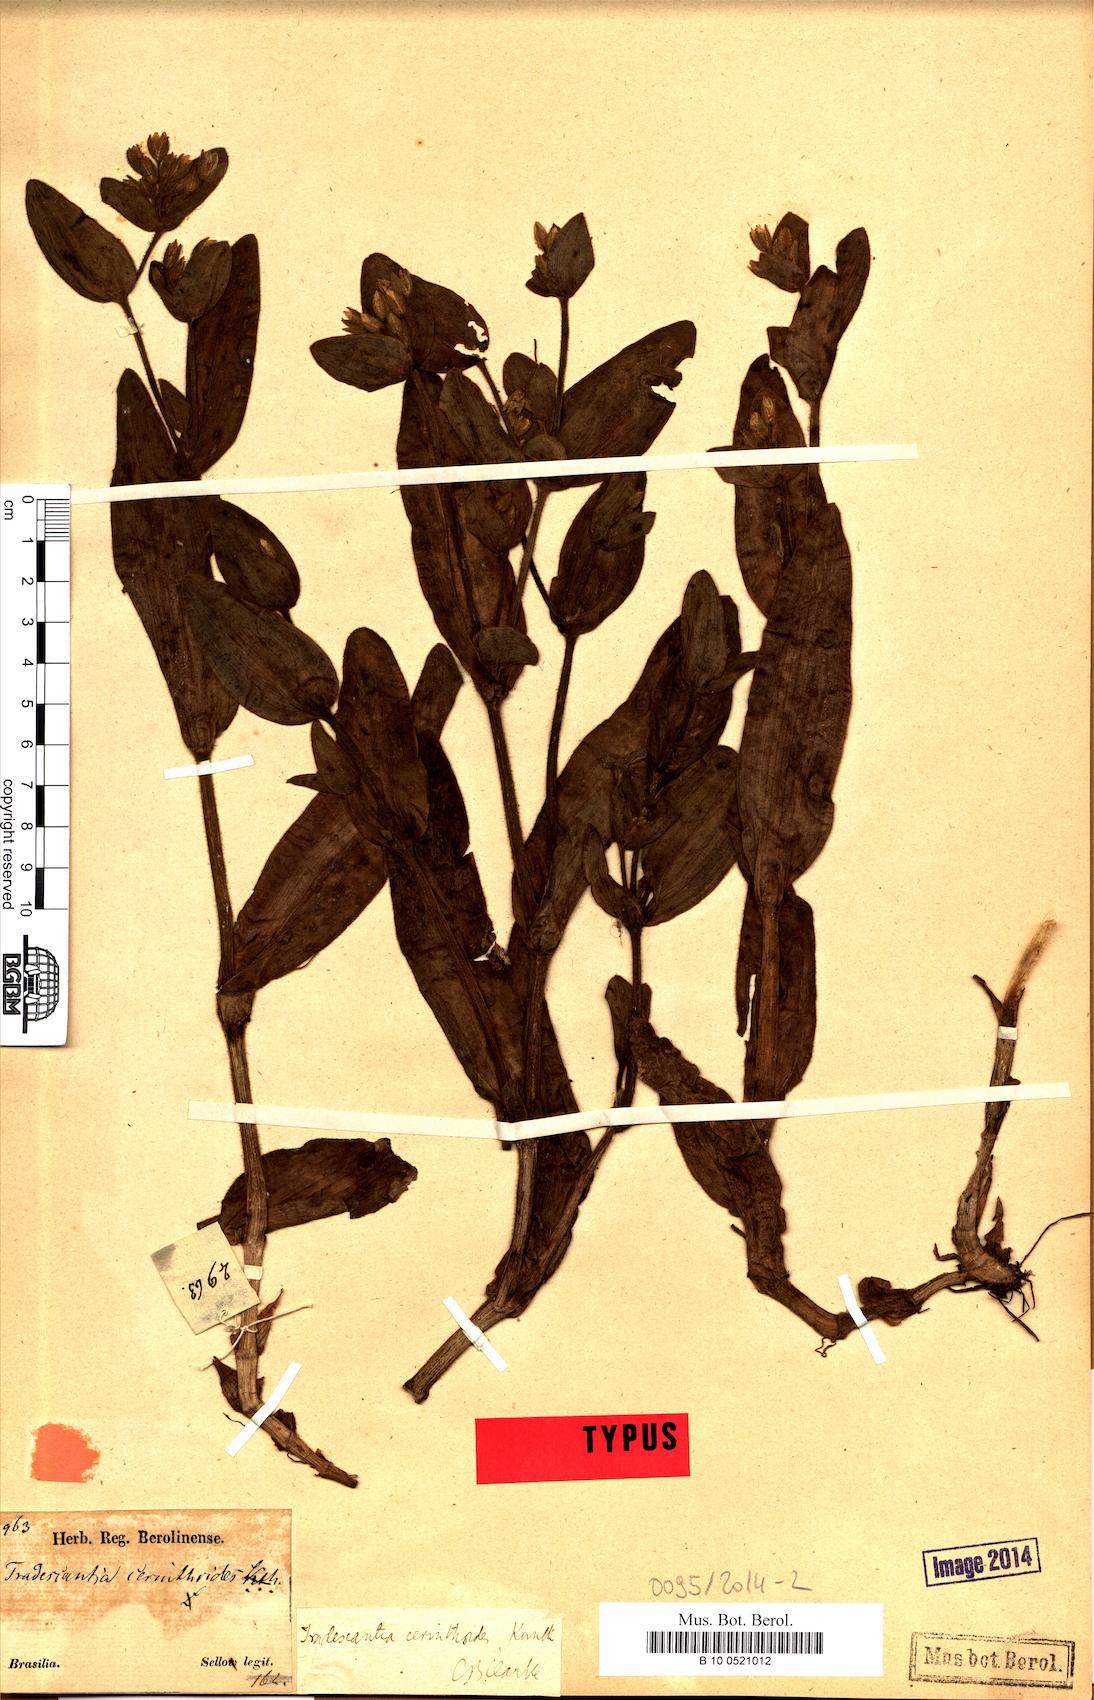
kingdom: Plantae
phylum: Tracheophyta
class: Liliopsida
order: Commelinales
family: Commelinaceae
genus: Tradescantia
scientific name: Tradescantia cerinthoides
